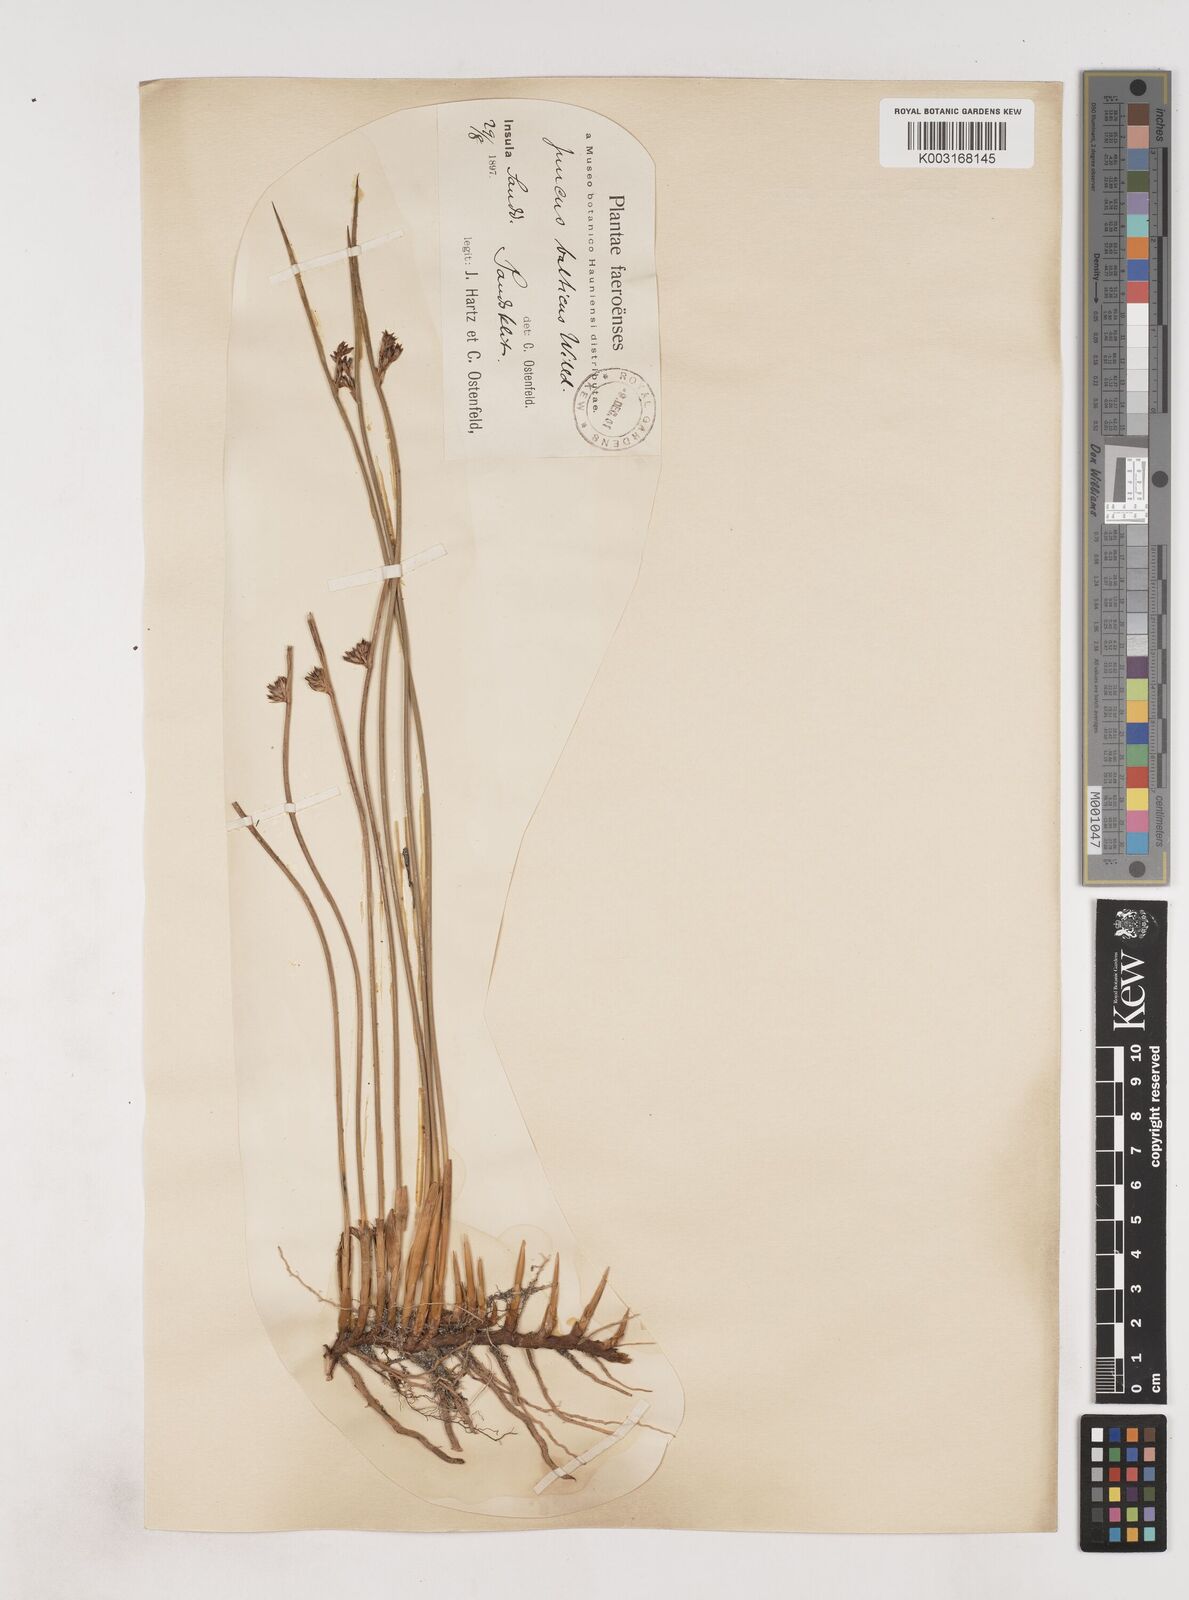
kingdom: Plantae
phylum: Tracheophyta
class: Liliopsida
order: Poales
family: Juncaceae
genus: Juncus
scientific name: Juncus balticus
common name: Baltic rush
